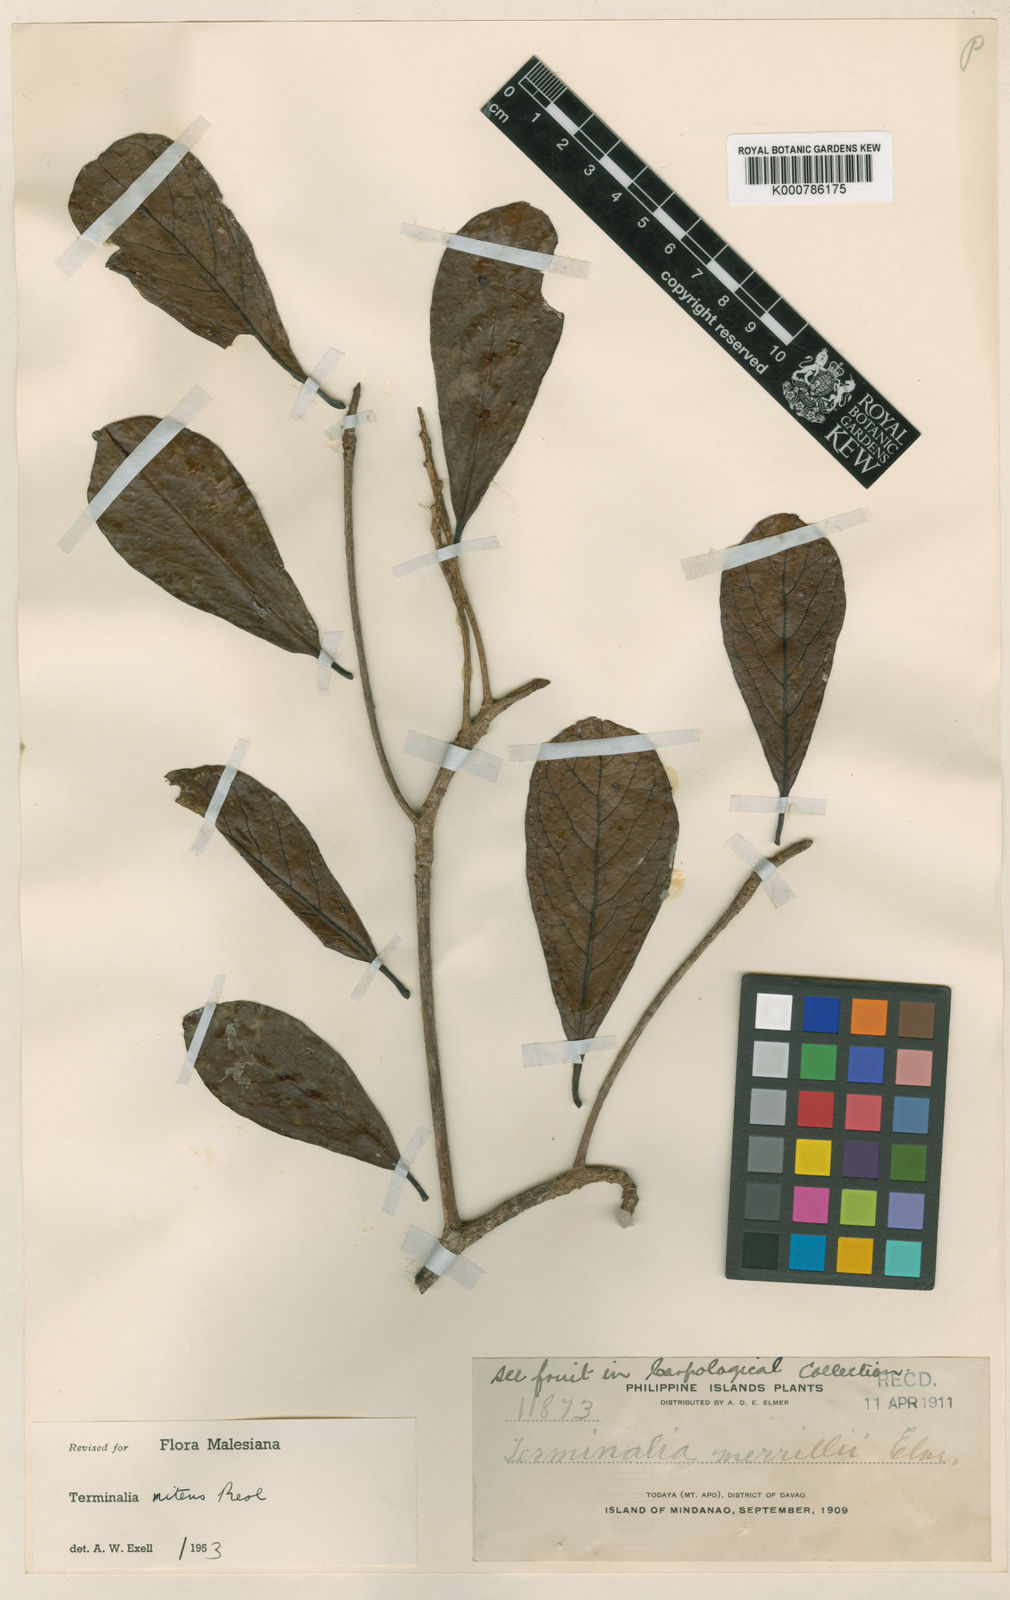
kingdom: Plantae
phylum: Tracheophyta
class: Magnoliopsida
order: Myrtales
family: Combretaceae
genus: Terminalia
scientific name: Terminalia nitens
